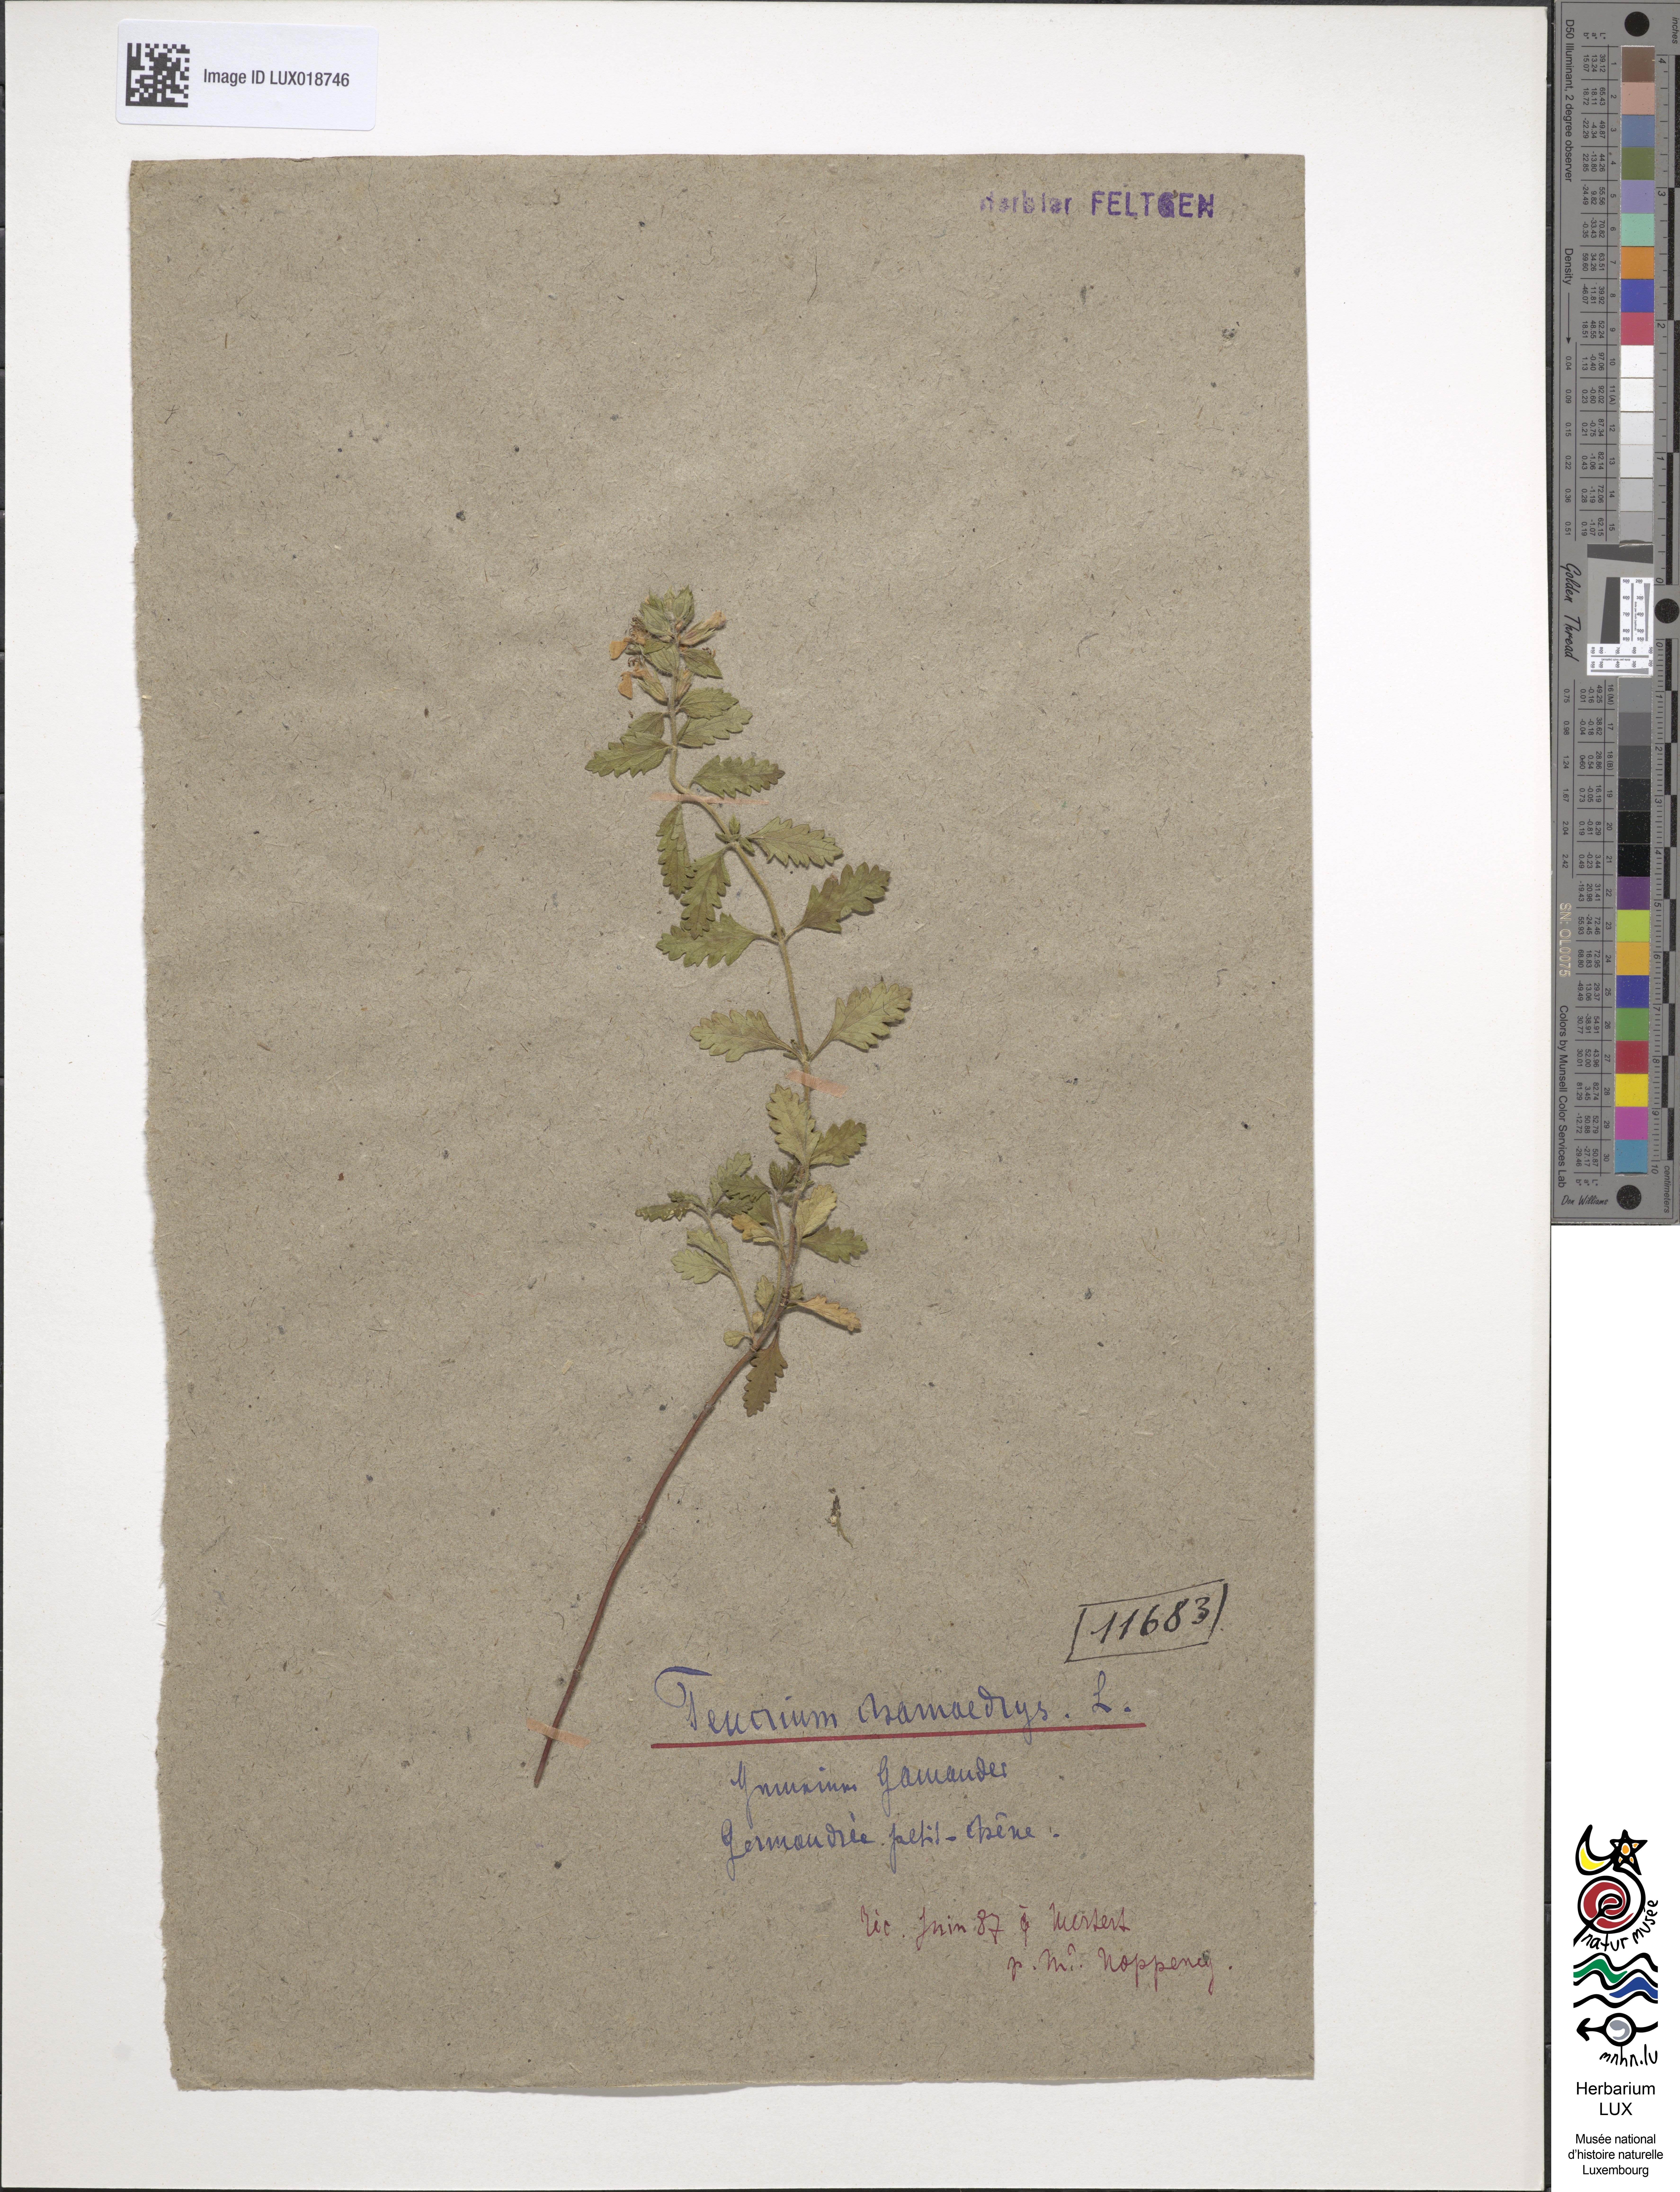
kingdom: Plantae
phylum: Tracheophyta
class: Magnoliopsida
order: Lamiales
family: Lamiaceae
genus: Teucrium
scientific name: Teucrium chamaedrys
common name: Wall germander
